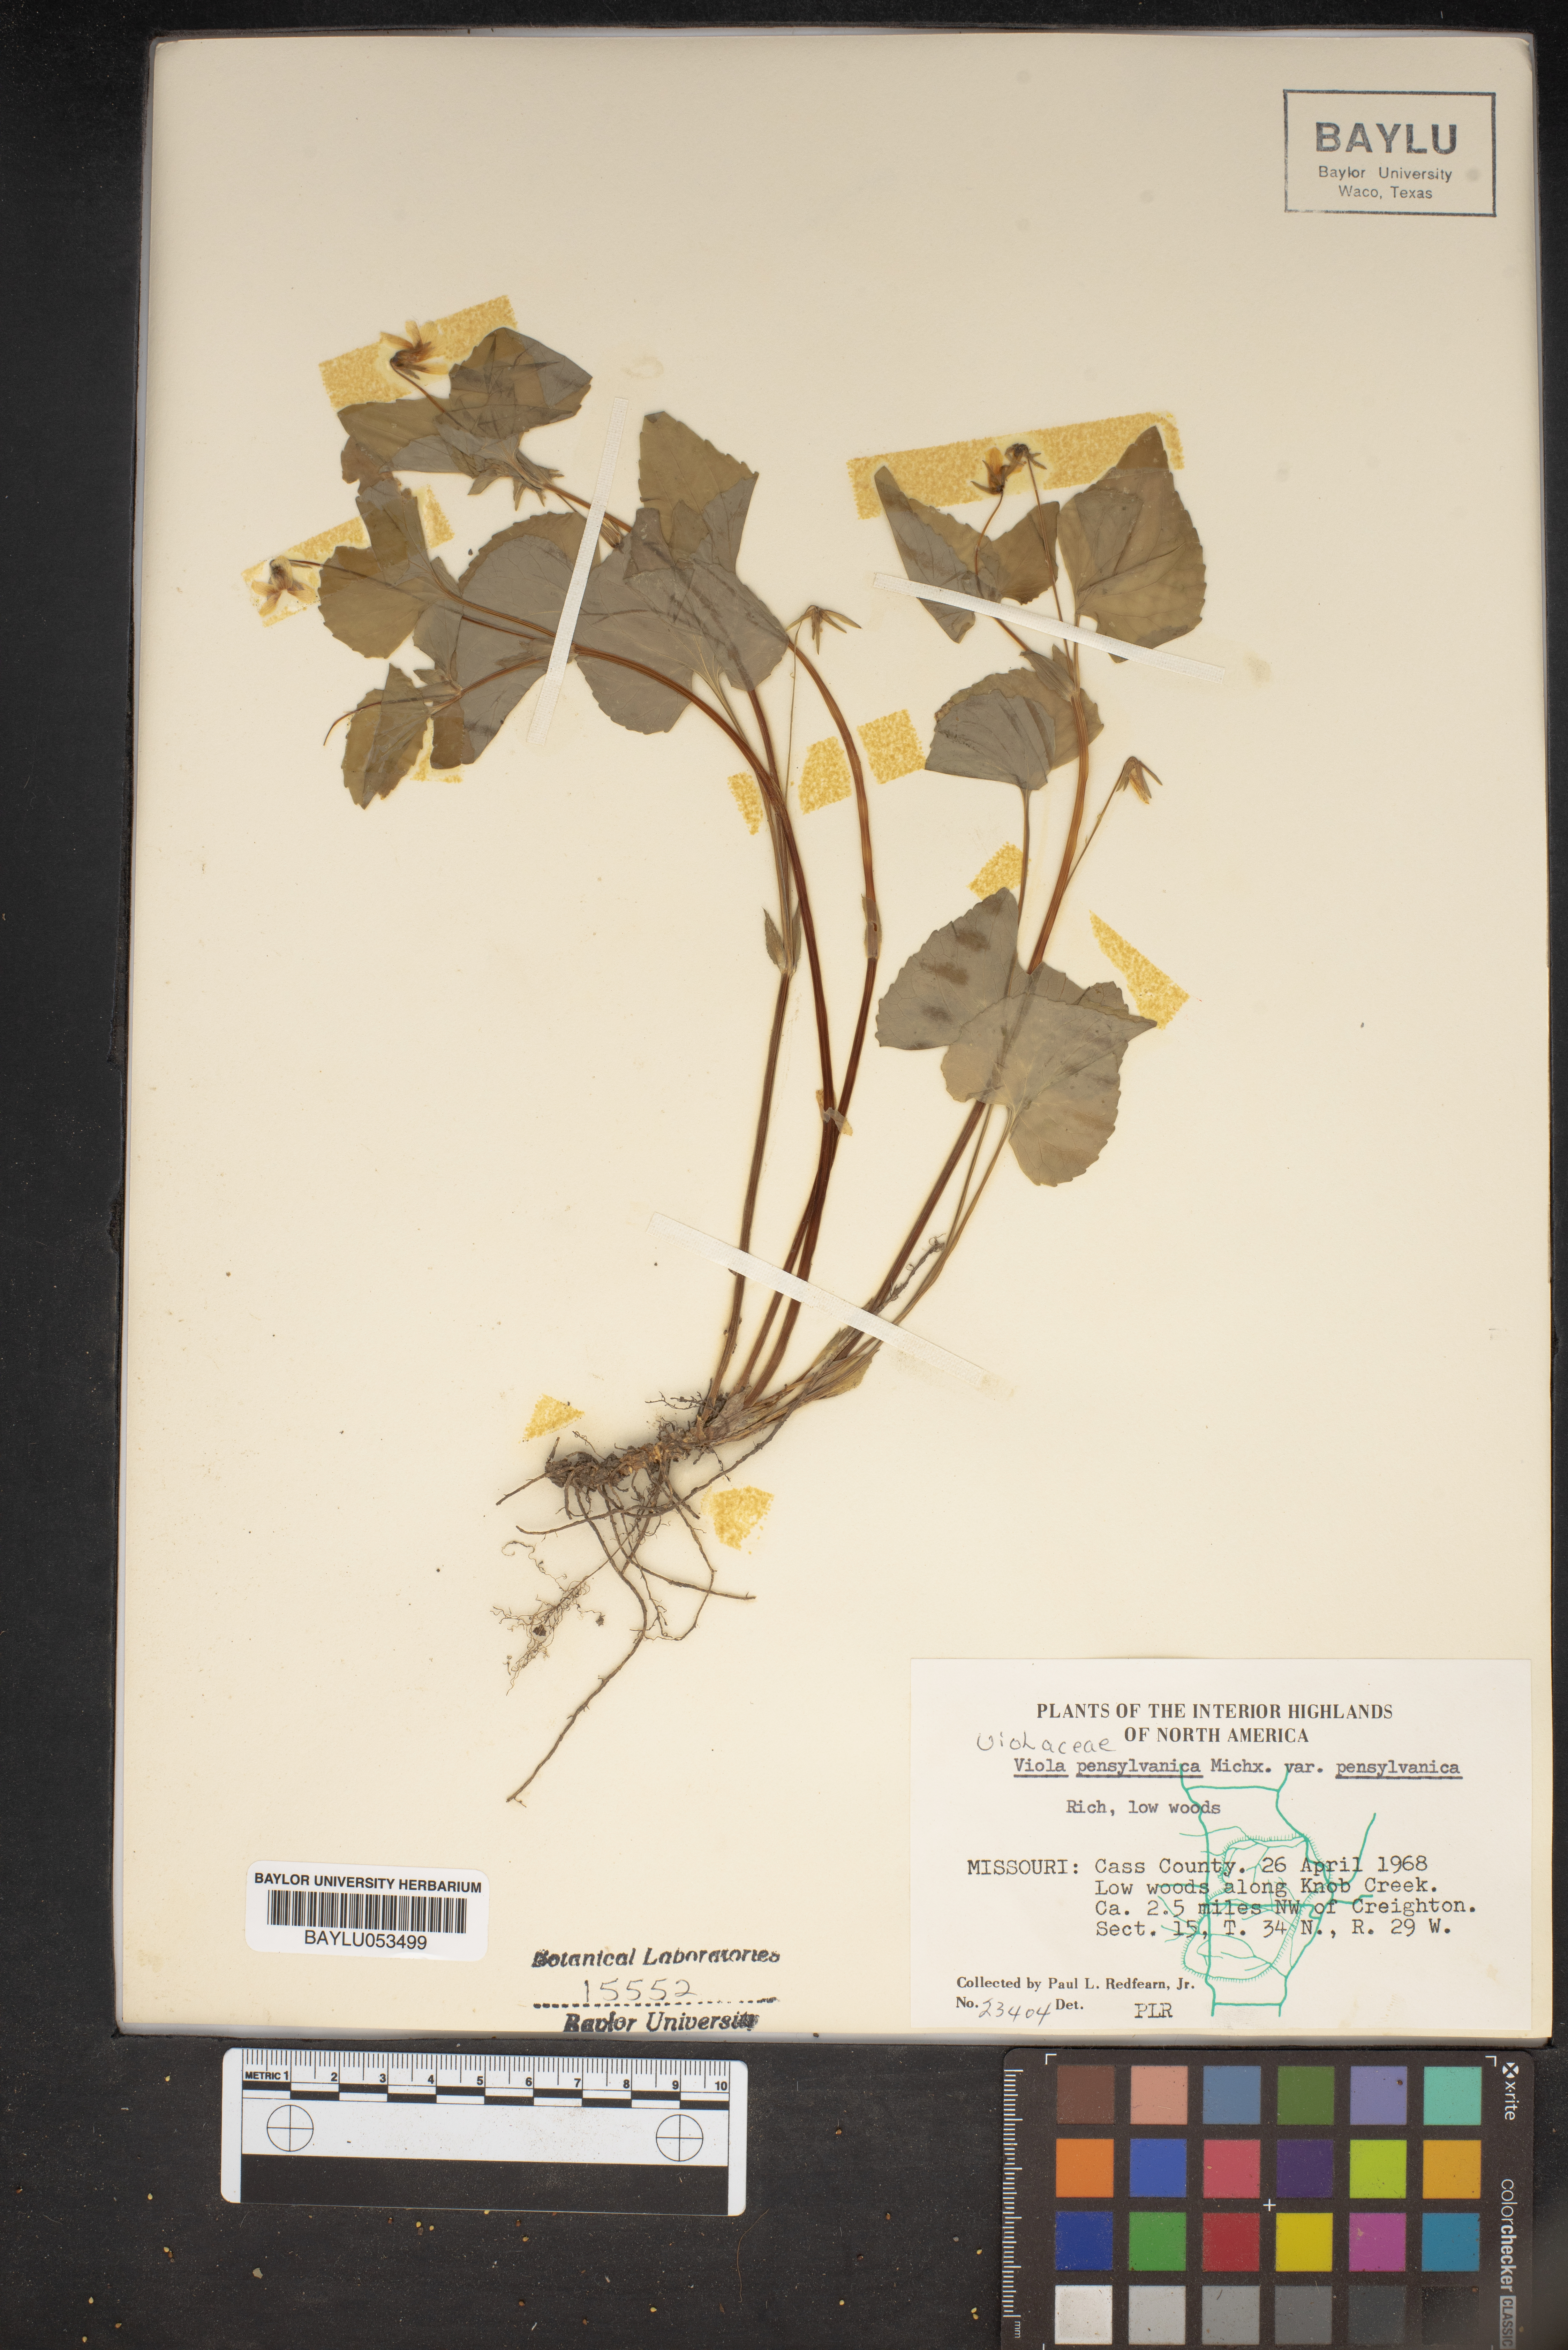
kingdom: Plantae
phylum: Tracheophyta
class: Magnoliopsida
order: Malpighiales
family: Violaceae
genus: Viola
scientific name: Viola pubescens
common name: Yellow forest violet
